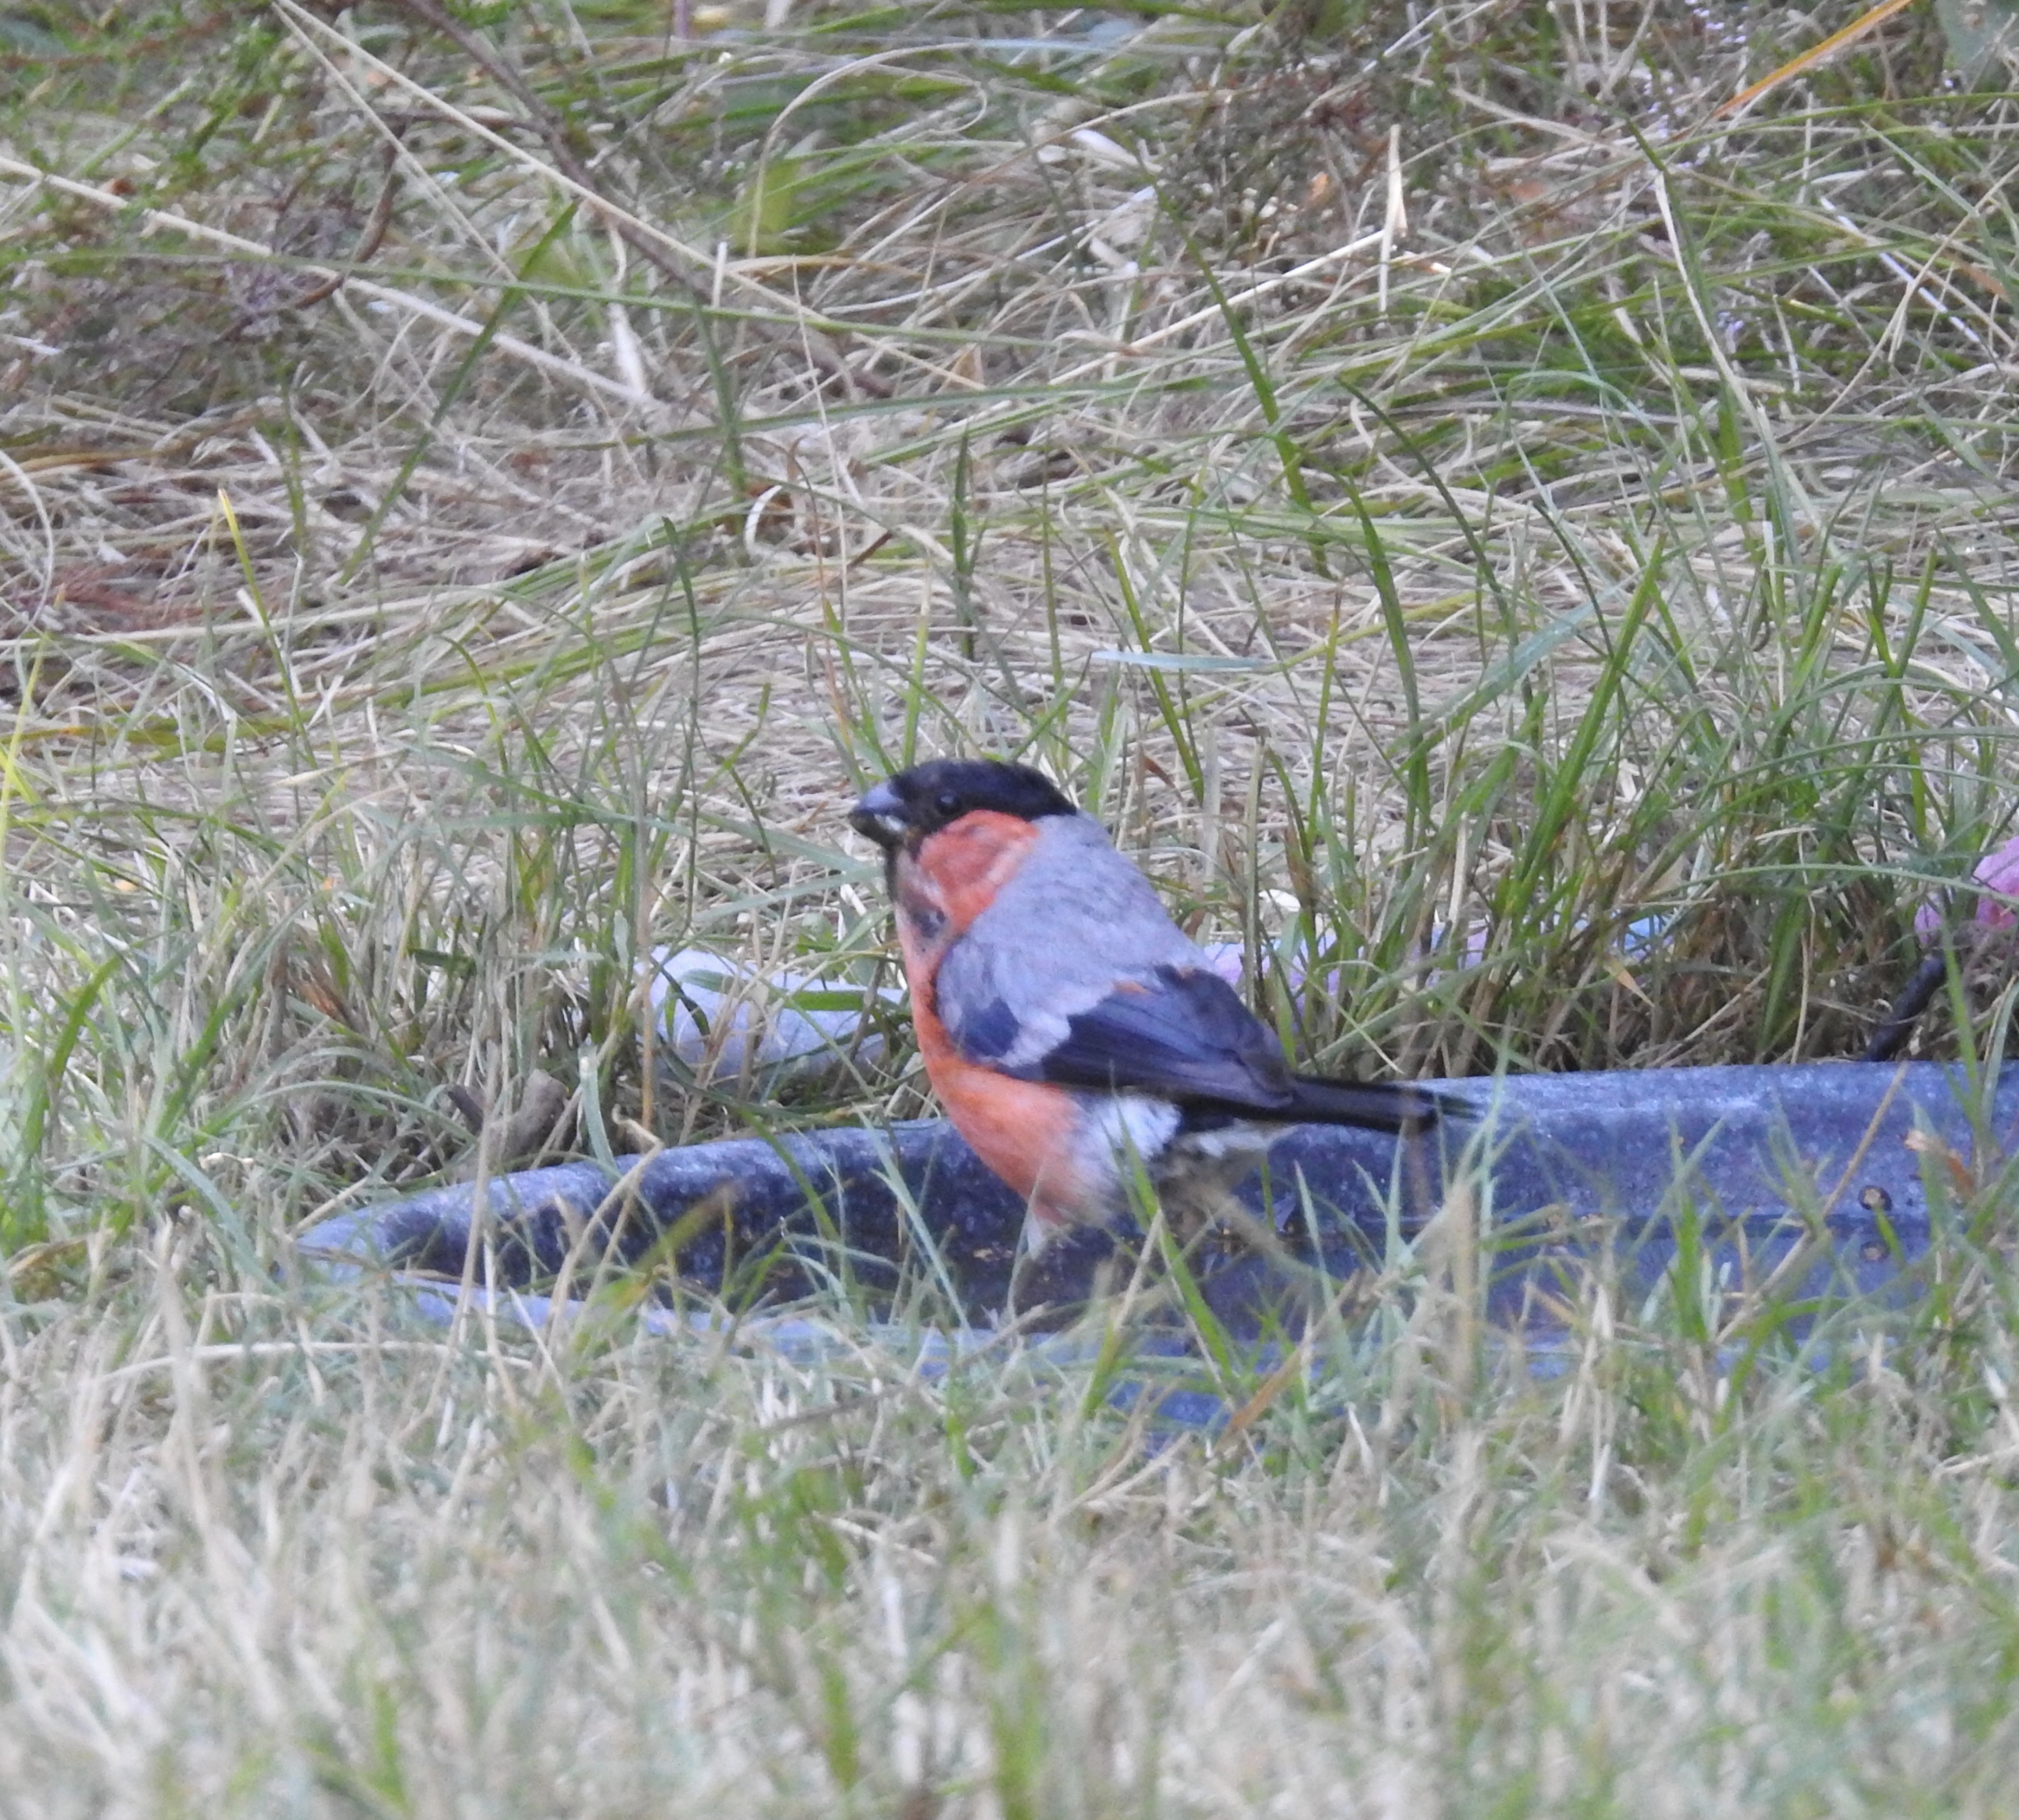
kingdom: Animalia
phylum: Chordata
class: Aves
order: Passeriformes
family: Fringillidae
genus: Pyrrhula
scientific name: Pyrrhula pyrrhula
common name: Dompap
